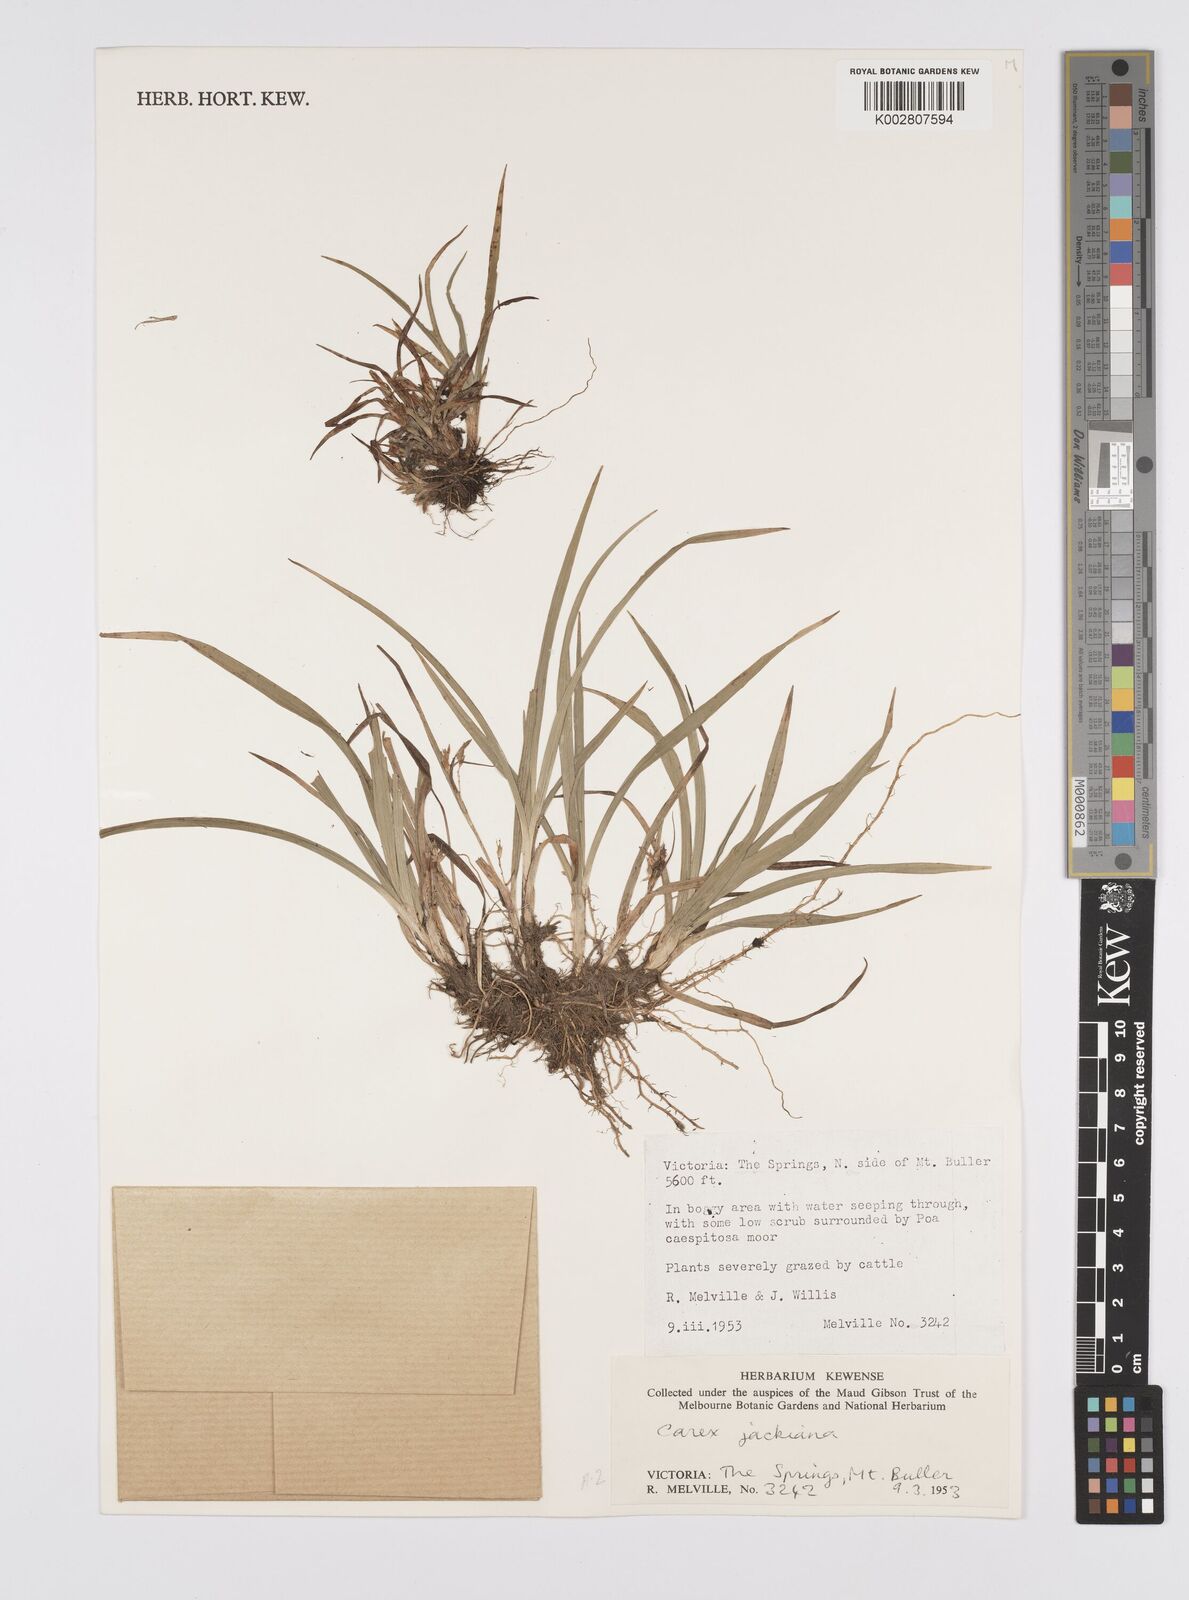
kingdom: Plantae
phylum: Tracheophyta
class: Liliopsida
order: Poales
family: Cyperaceae
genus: Carex
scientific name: Carex jackiana
